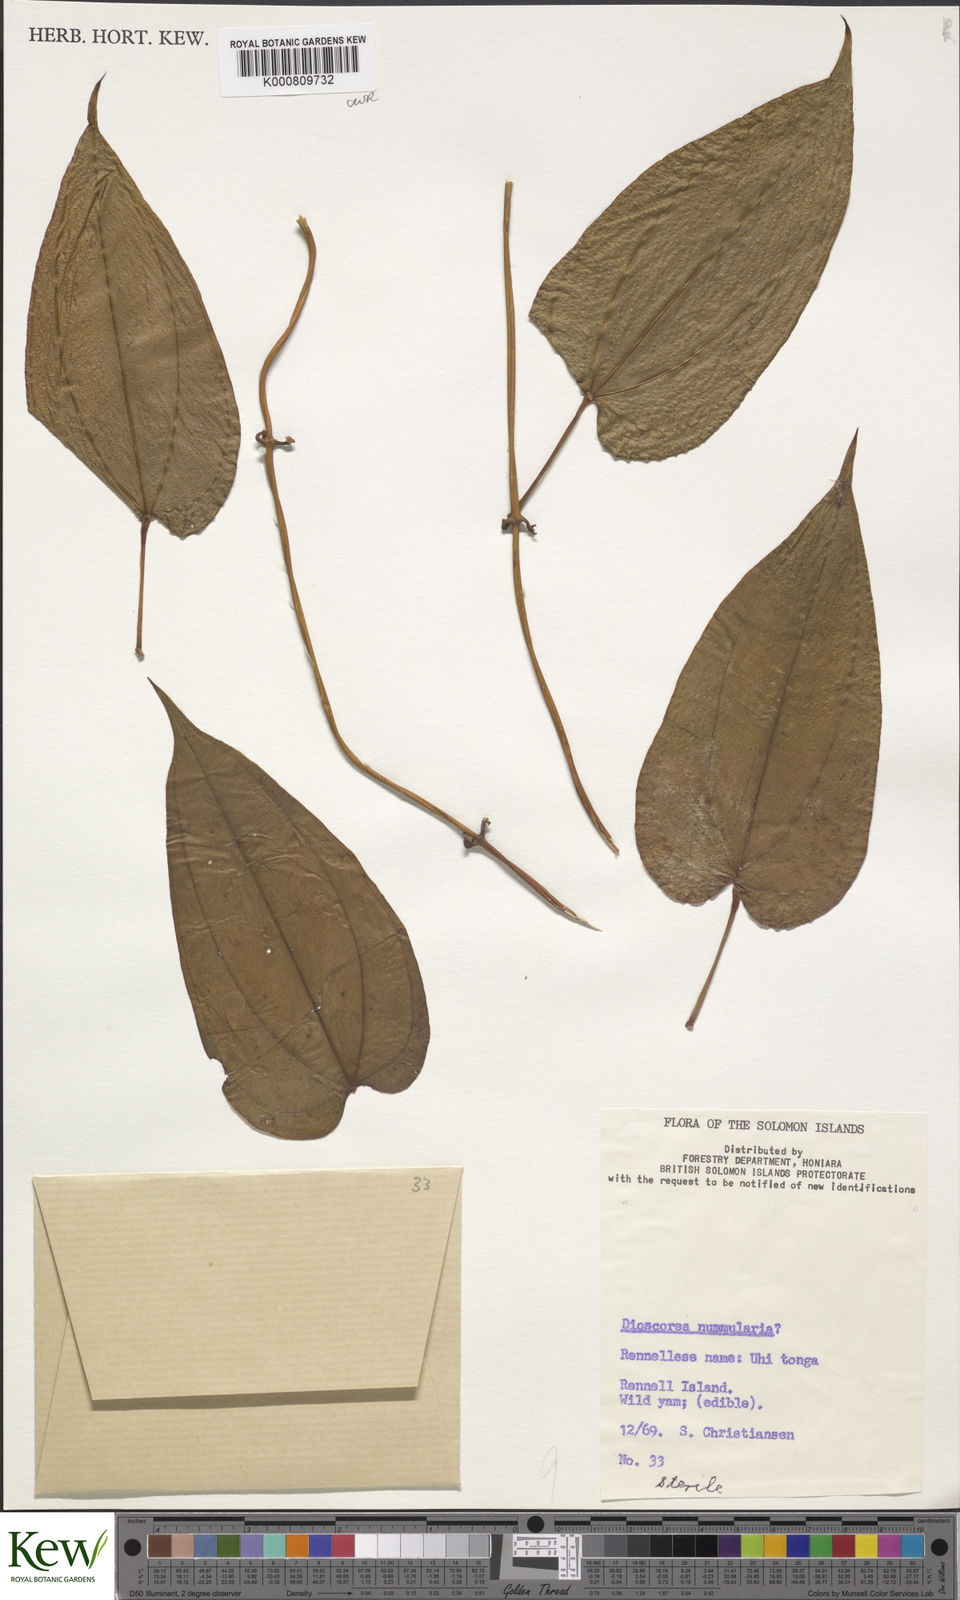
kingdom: Plantae
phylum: Tracheophyta
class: Liliopsida
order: Dioscoreales
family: Dioscoreaceae
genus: Dioscorea
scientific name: Dioscorea nummularia
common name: Pacific yam
